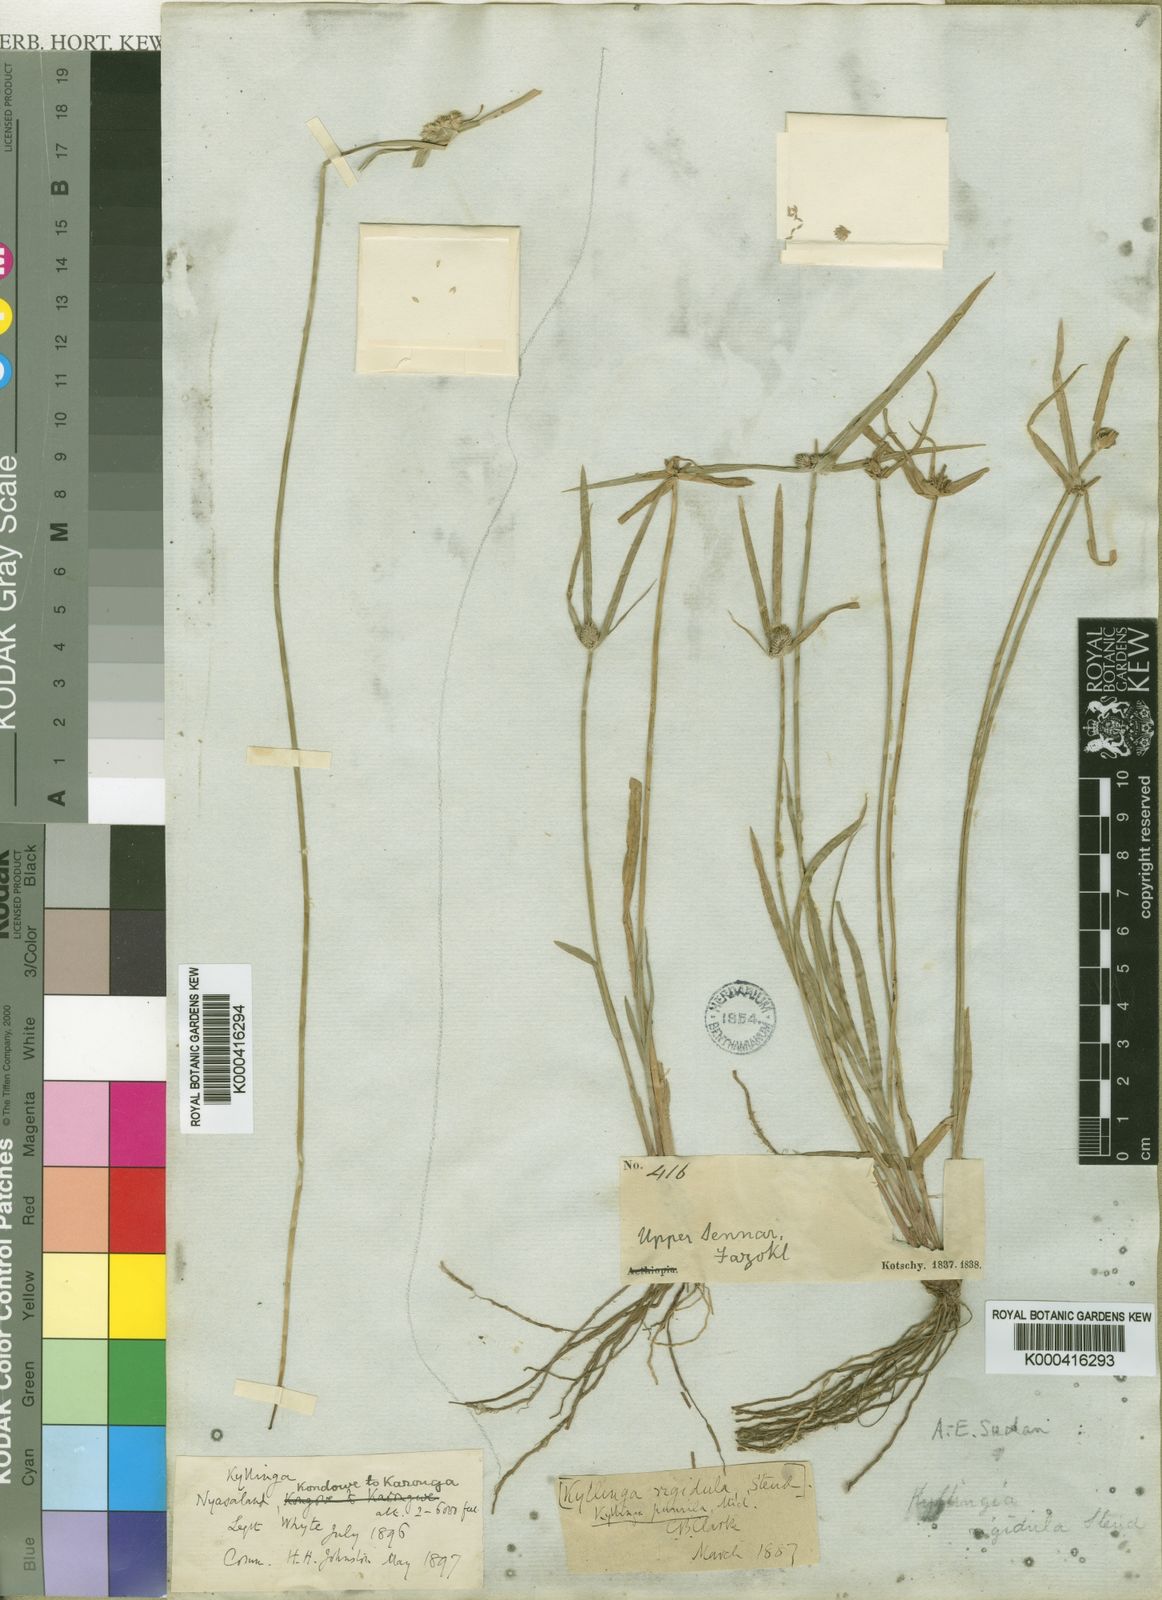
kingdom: Plantae
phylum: Tracheophyta
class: Liliopsida
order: Poales
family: Cyperaceae
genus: Cyperus
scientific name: Cyperus hortensis
